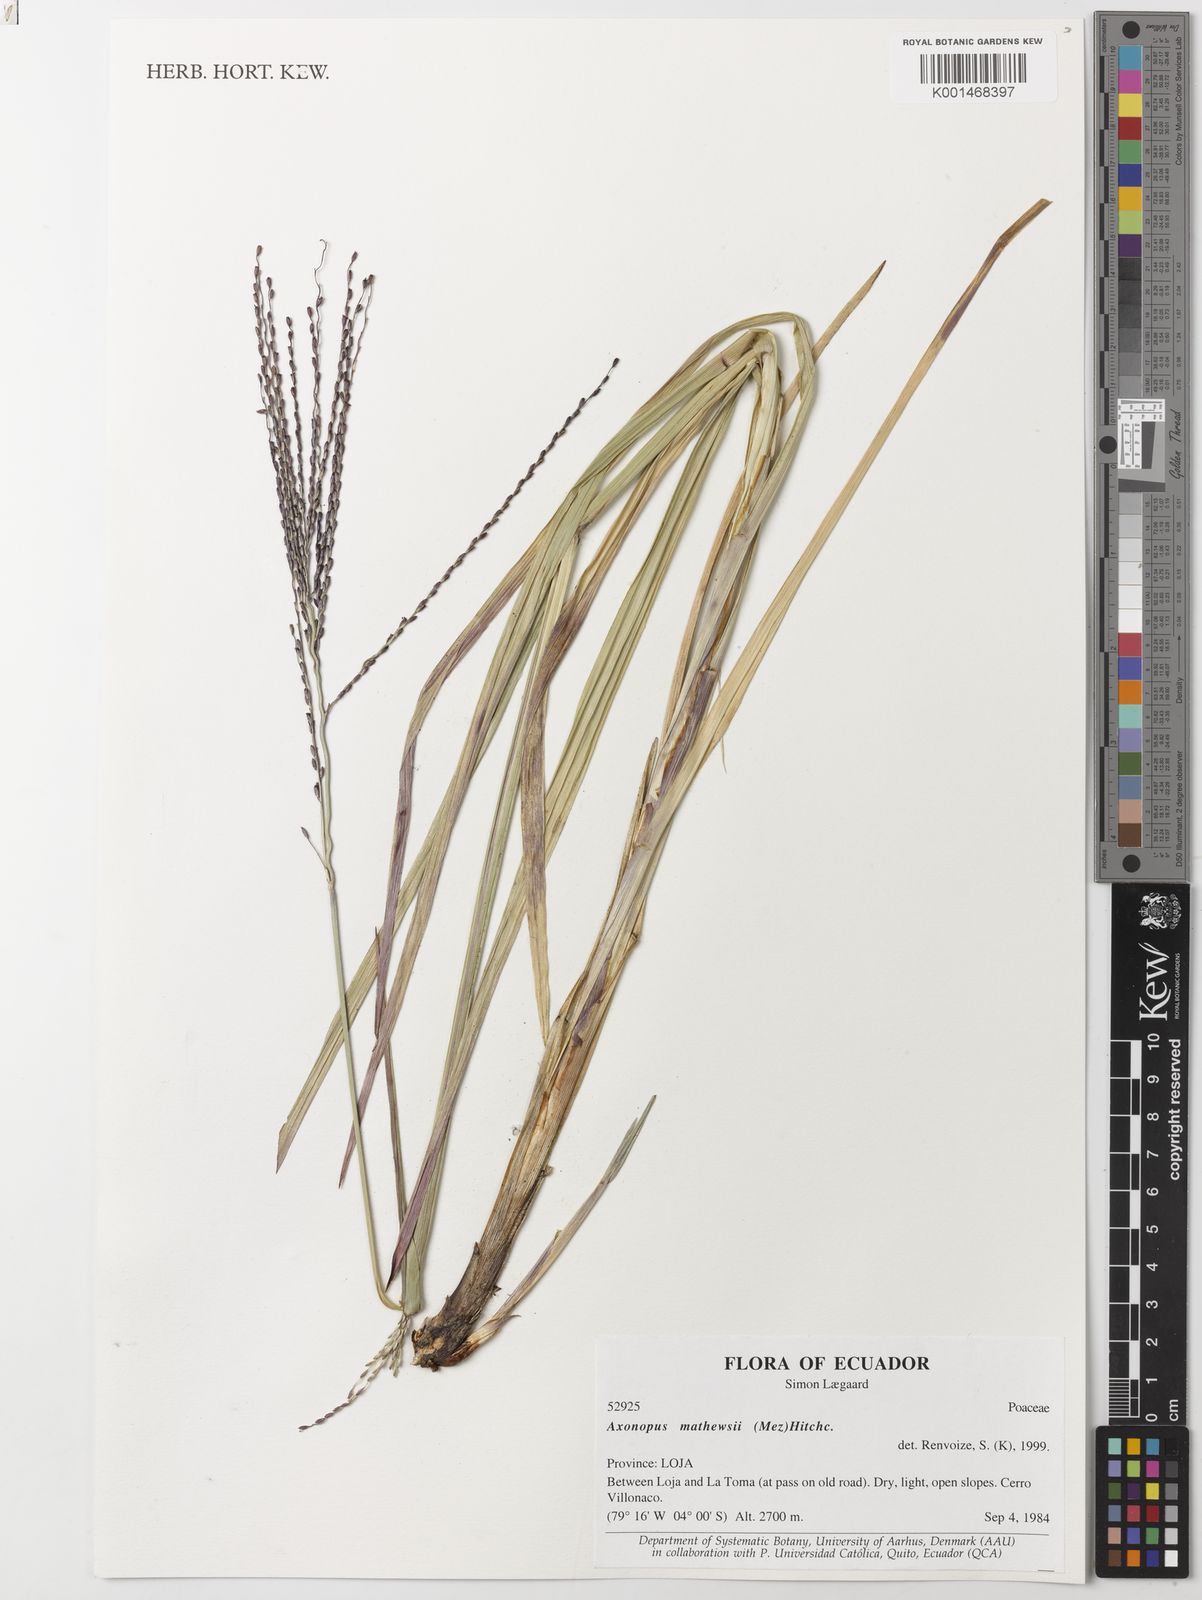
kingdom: Plantae
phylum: Tracheophyta
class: Liliopsida
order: Poales
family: Poaceae
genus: Axonopus
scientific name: Axonopus scoparius
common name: Imperial grass
